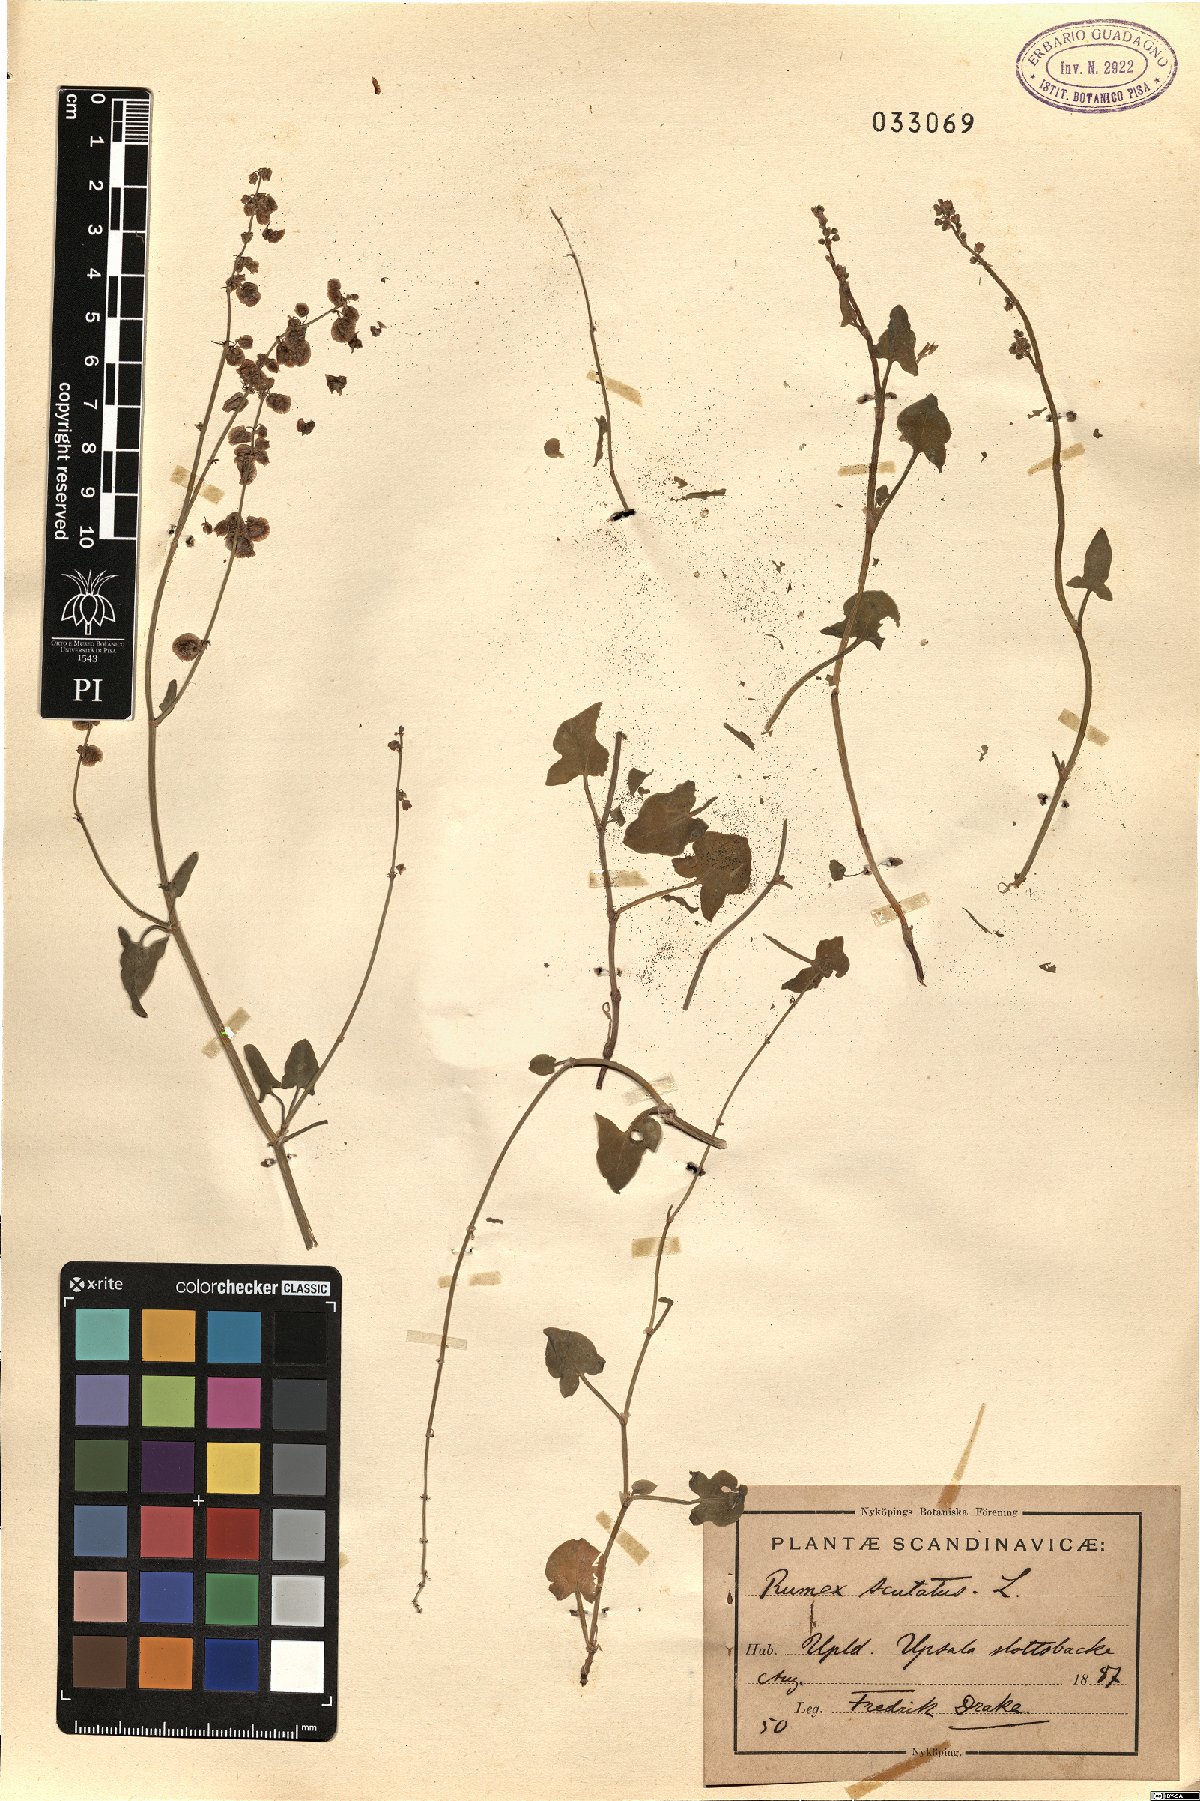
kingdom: Plantae
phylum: Tracheophyta
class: Magnoliopsida
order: Caryophyllales
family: Polygonaceae
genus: Rumex
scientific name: Rumex scutatus
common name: French sorrel
